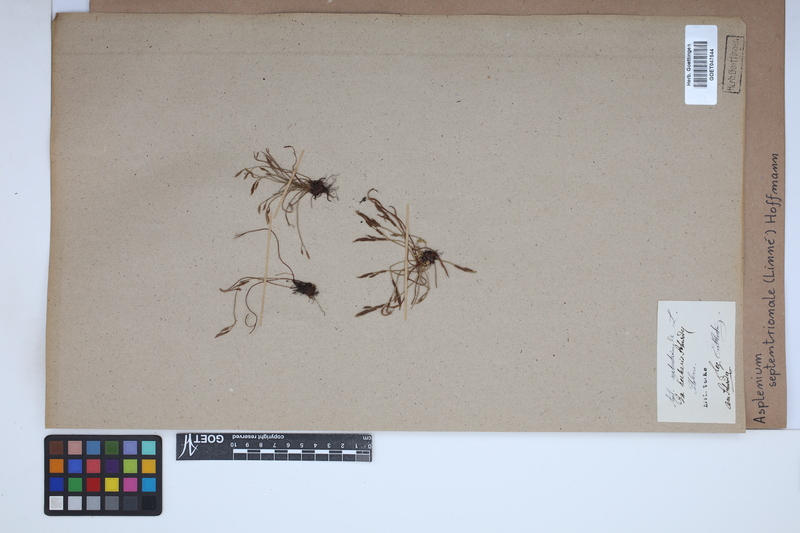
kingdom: Plantae
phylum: Tracheophyta
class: Polypodiopsida
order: Polypodiales
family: Aspleniaceae
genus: Asplenium
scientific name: Asplenium septentrionale
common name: Forked spleenwort
